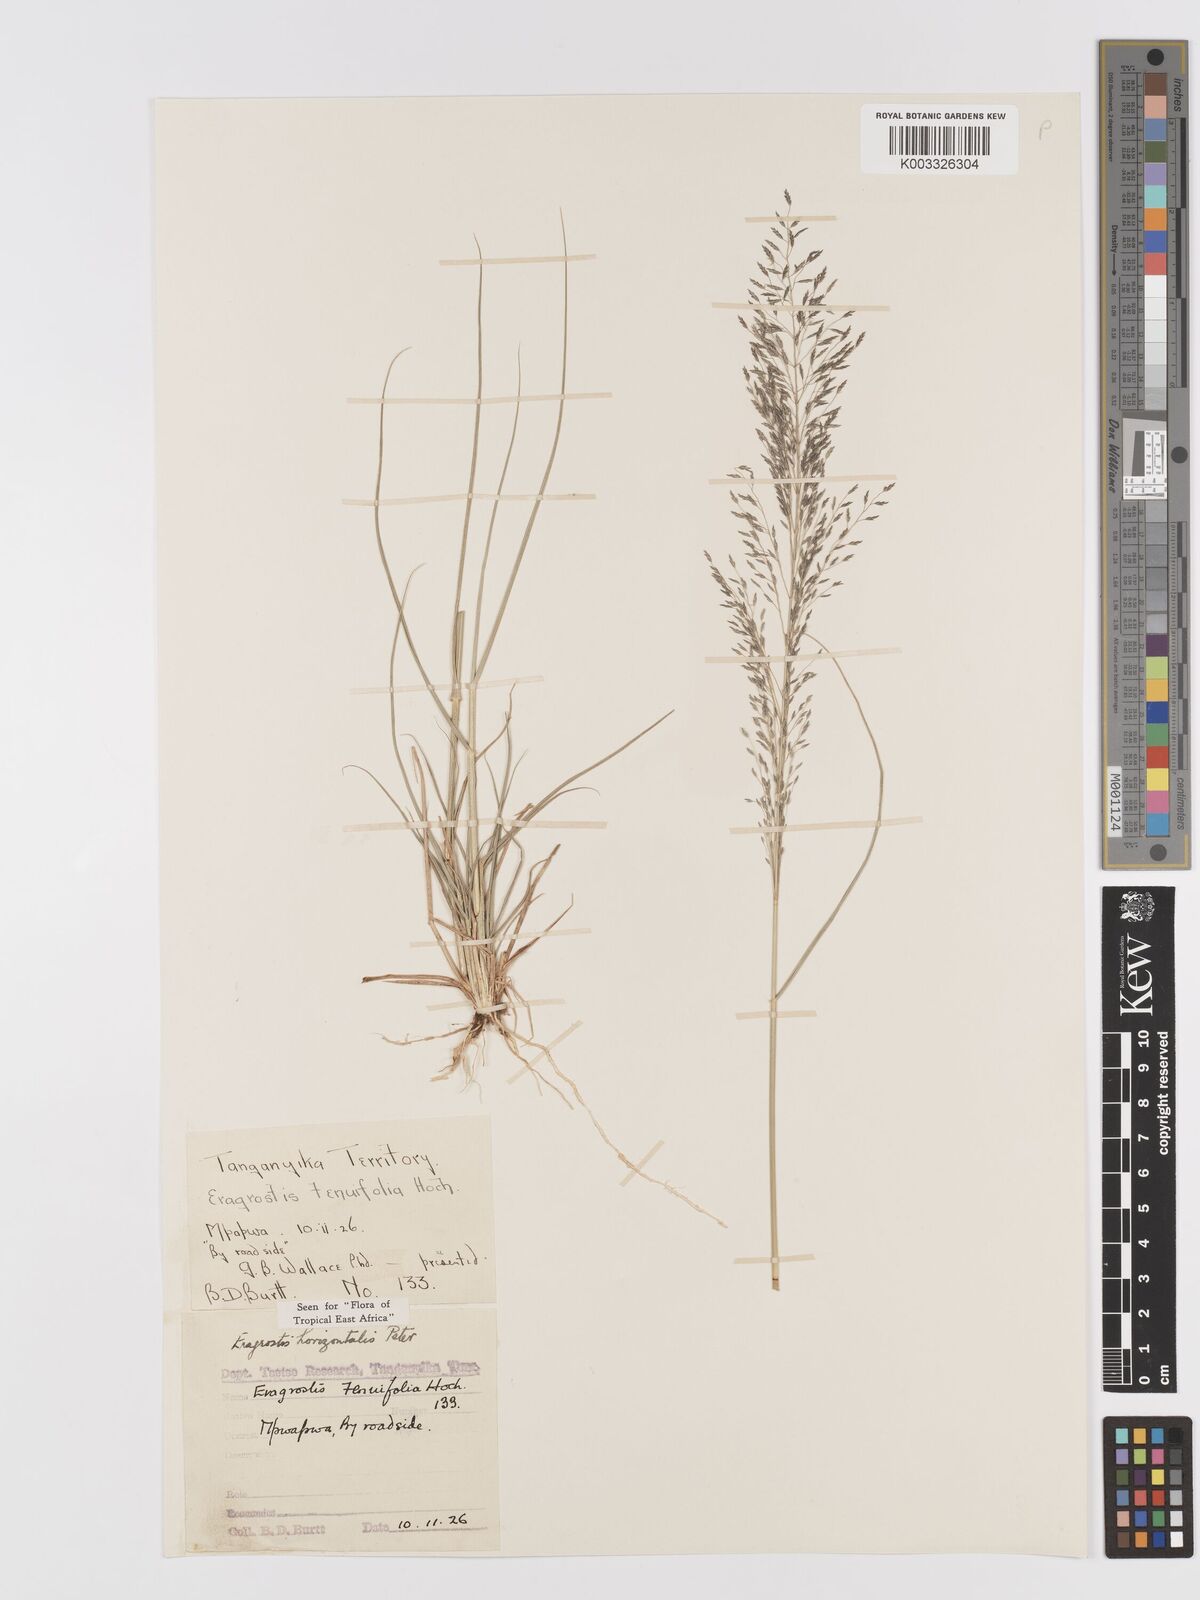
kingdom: Plantae
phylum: Tracheophyta
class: Liliopsida
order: Poales
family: Poaceae
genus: Eragrostis
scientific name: Eragrostis cylindriflora
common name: Cylinderflower lovegrass
